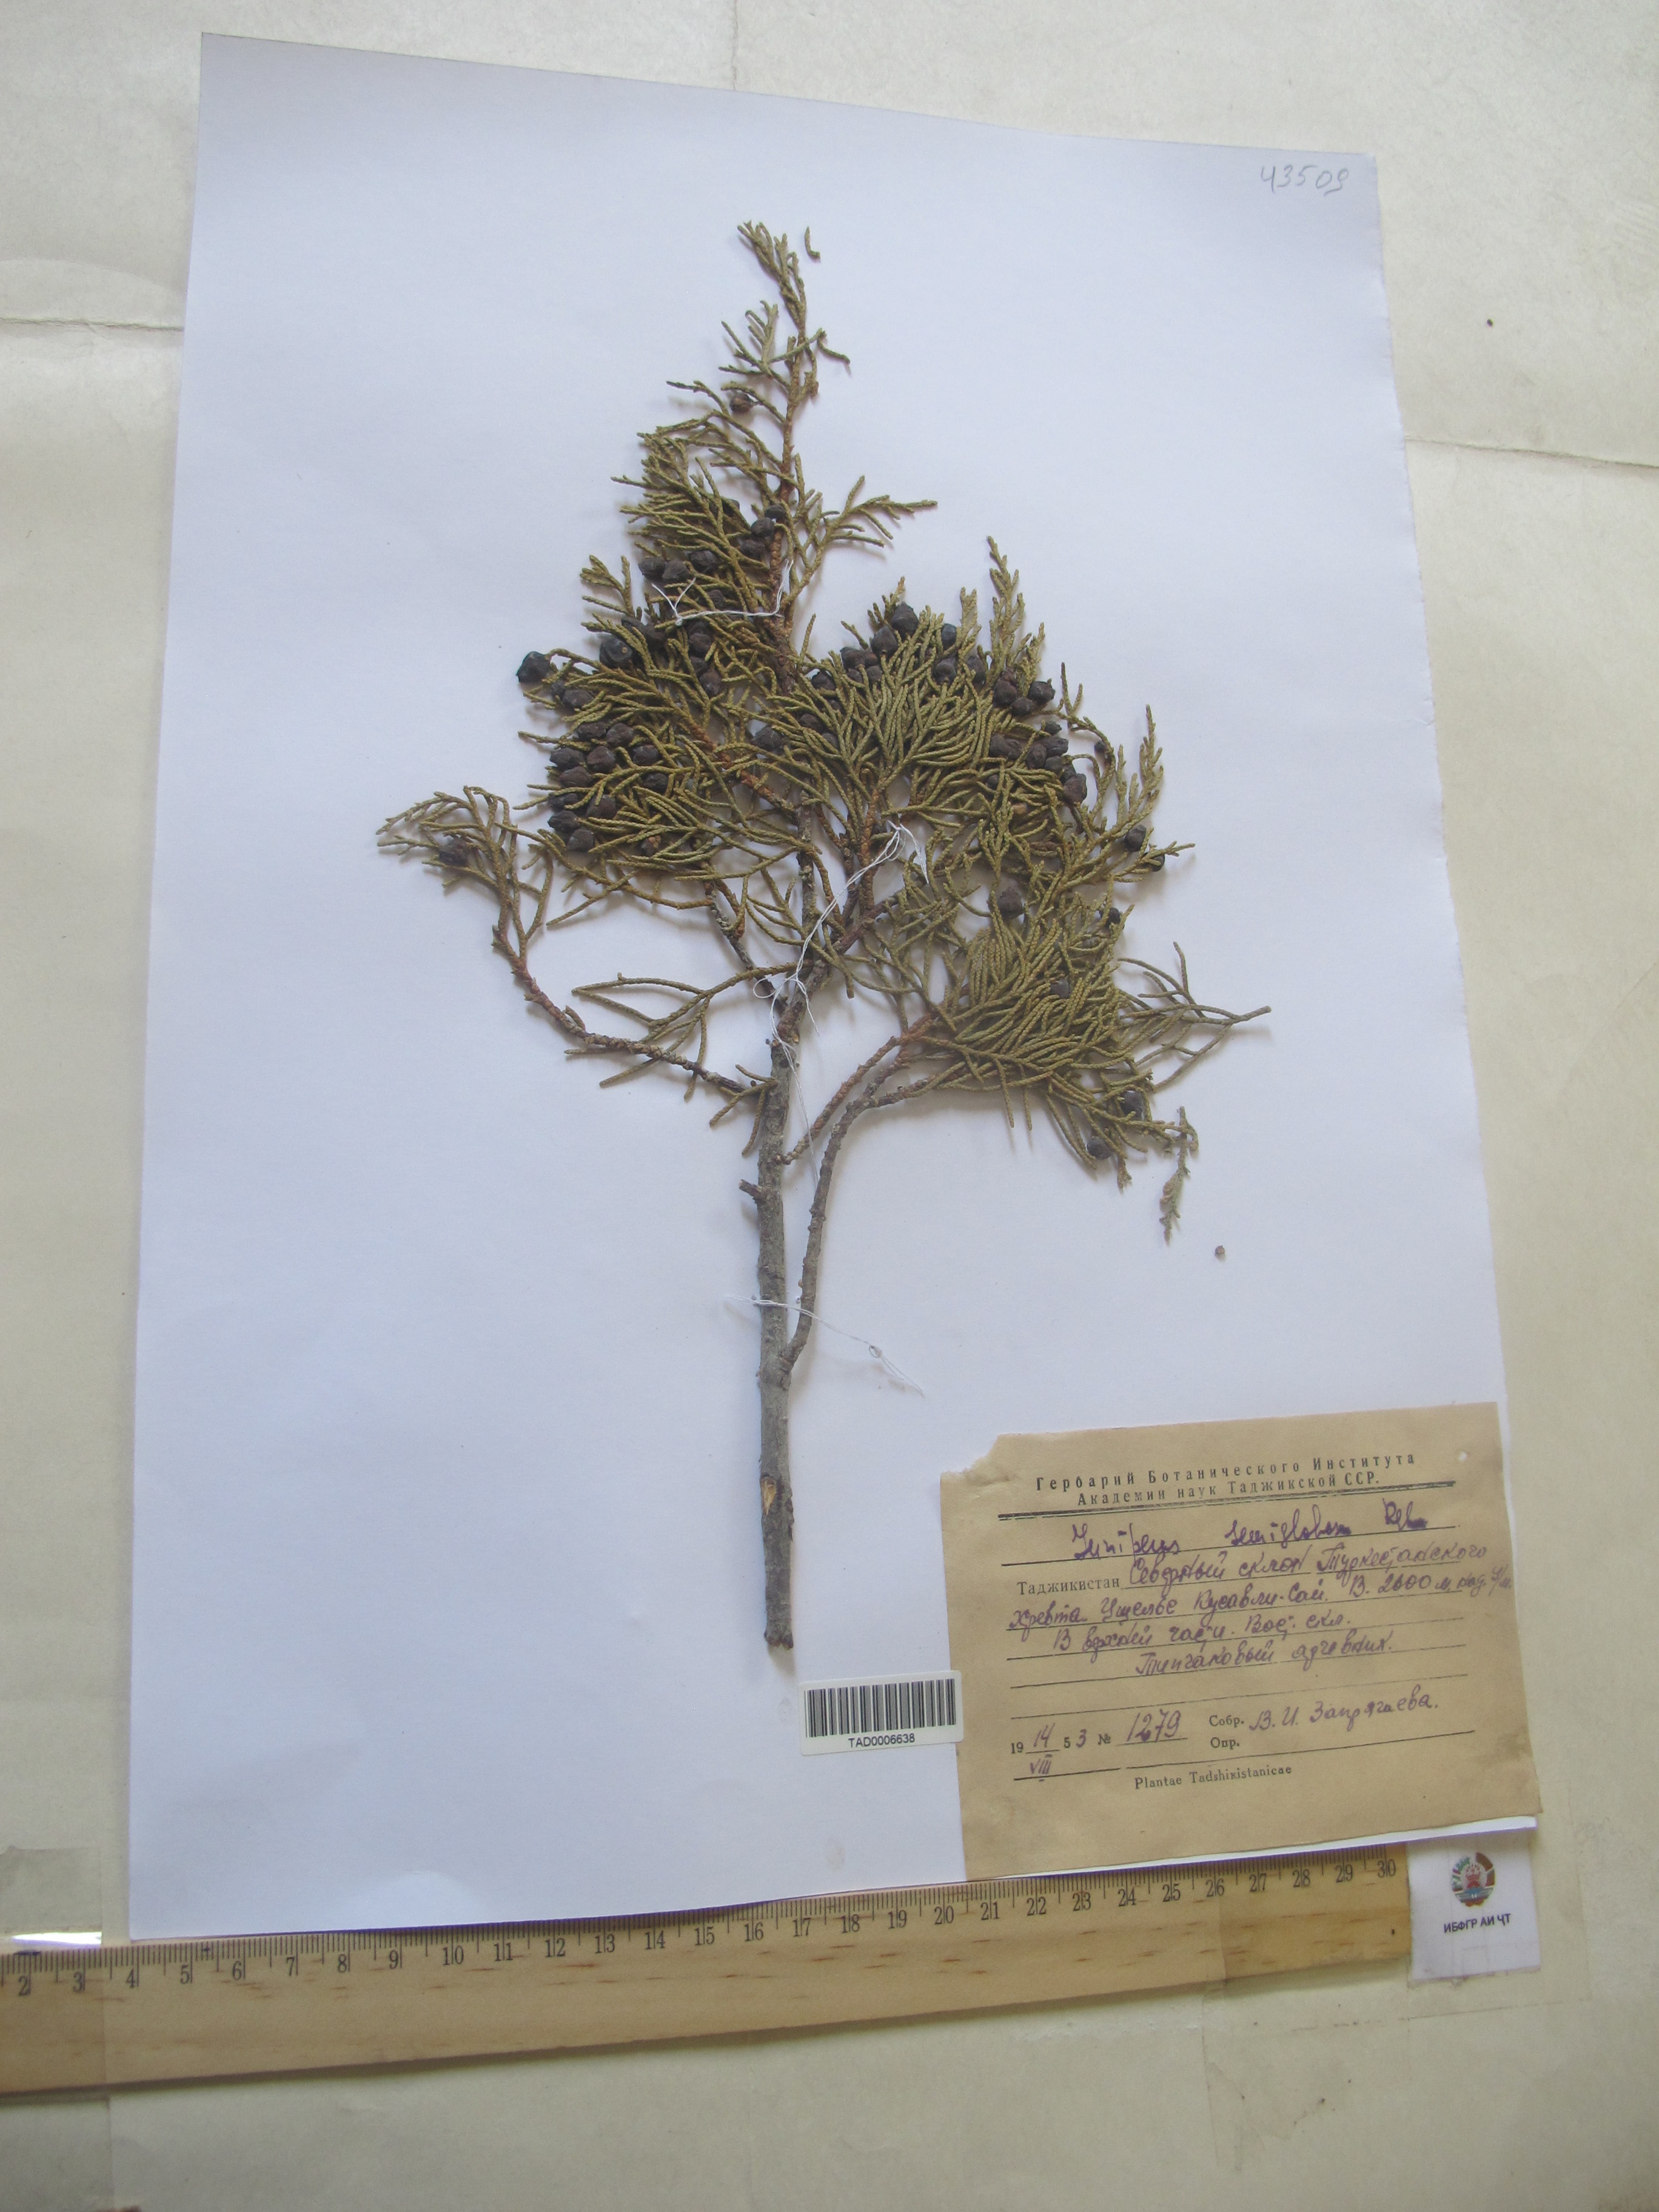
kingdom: Plantae
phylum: Tracheophyta
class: Pinopsida
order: Pinales
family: Cupressaceae
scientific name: Cupressaceae
